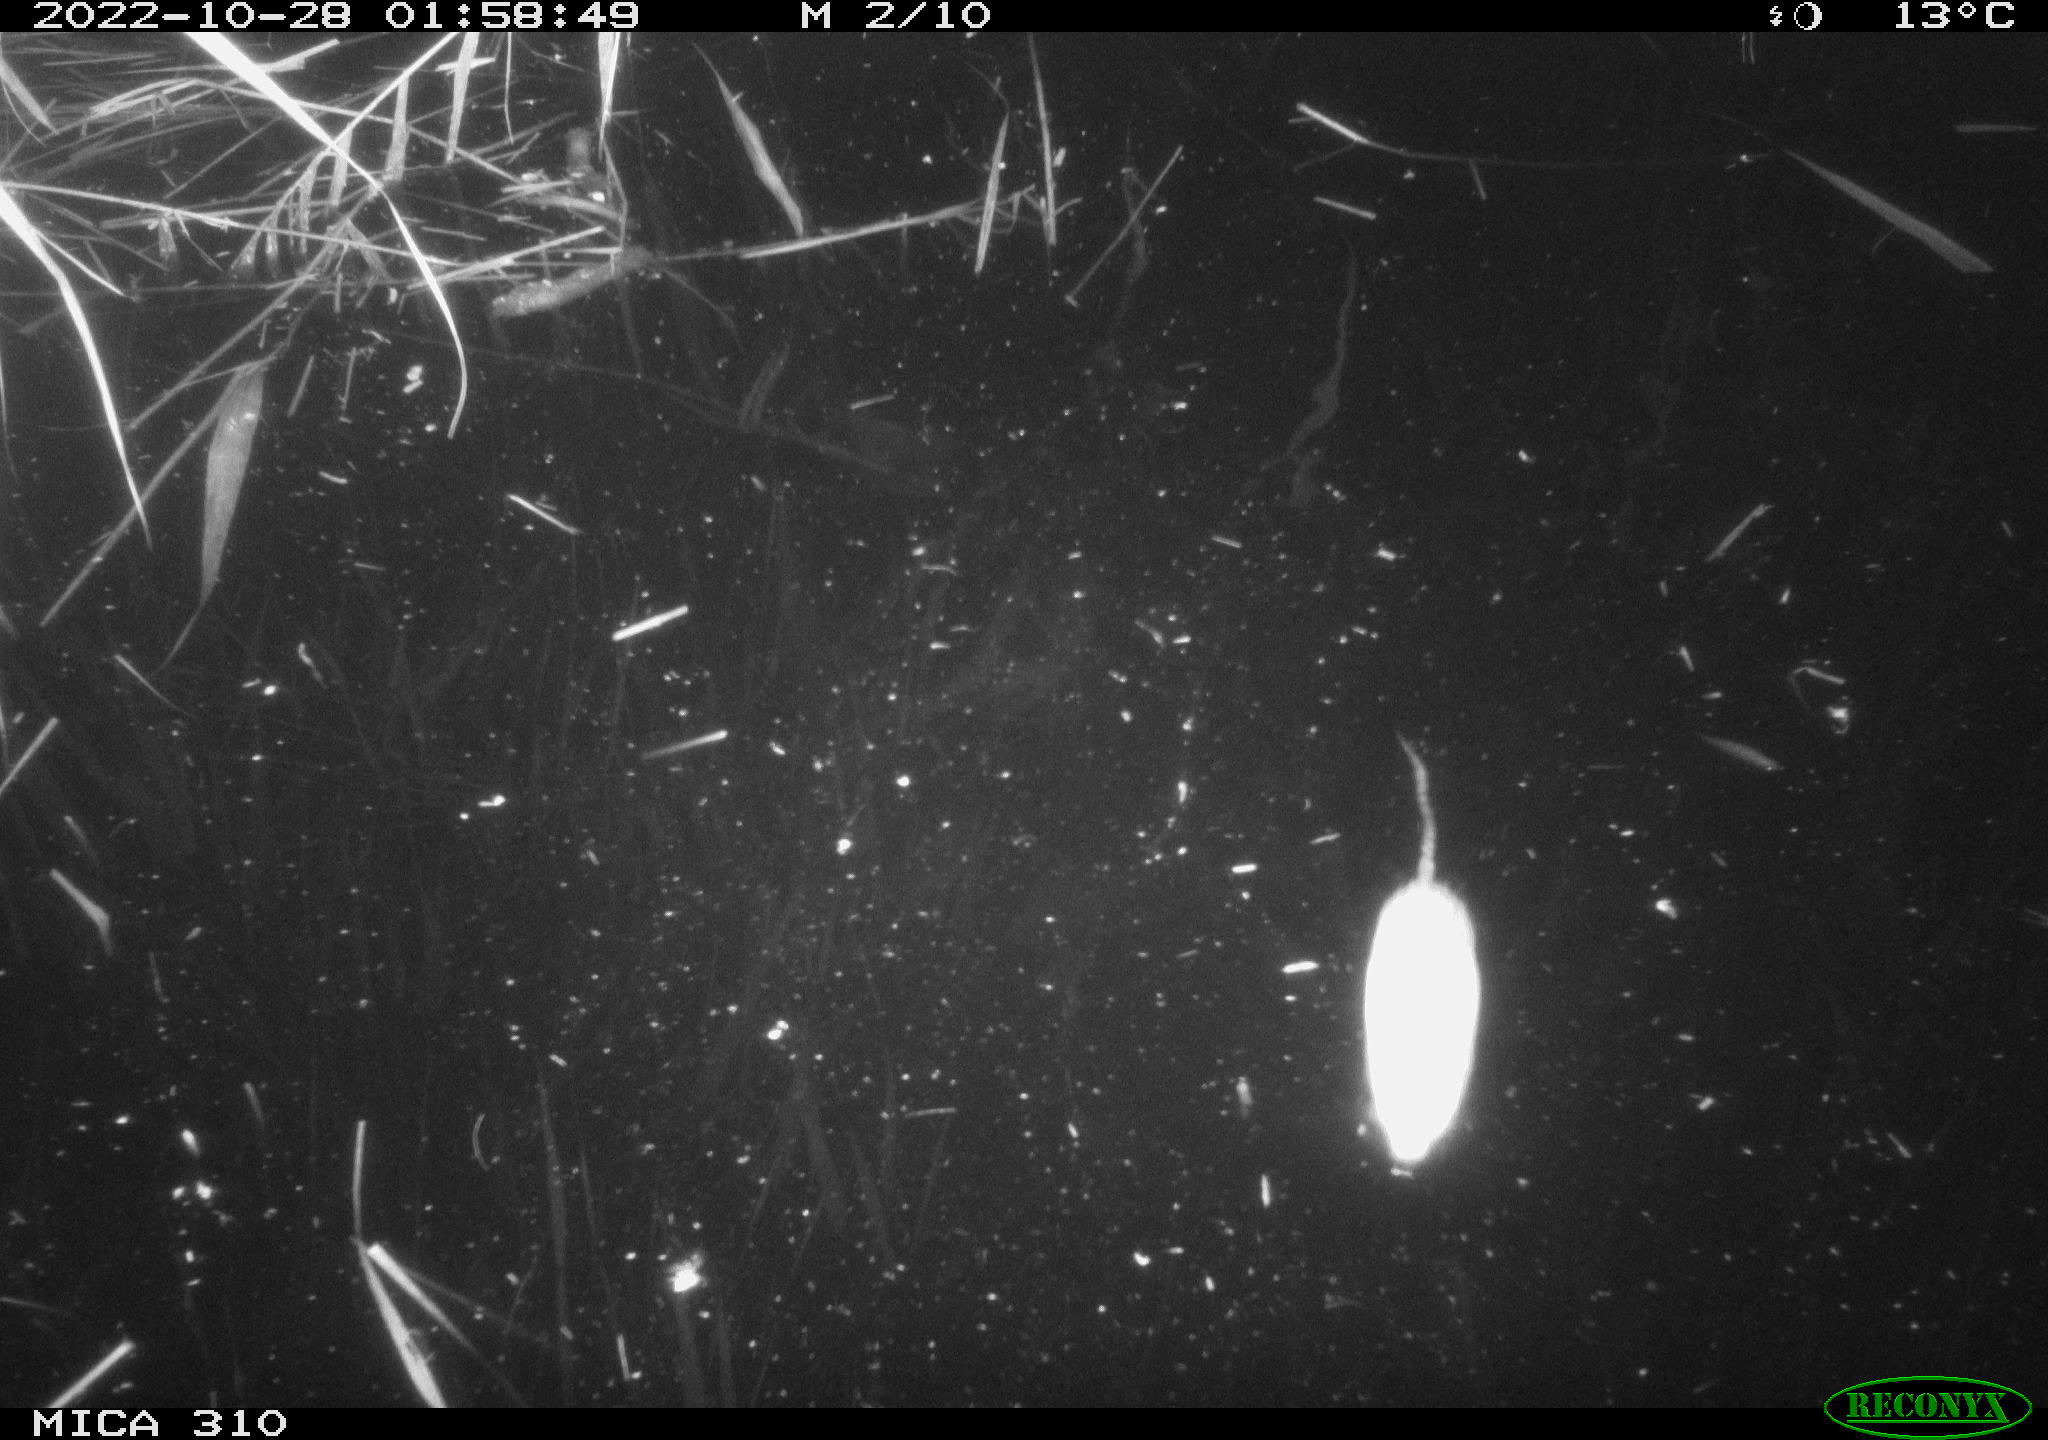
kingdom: Animalia
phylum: Chordata
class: Mammalia
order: Rodentia
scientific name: Rodentia
